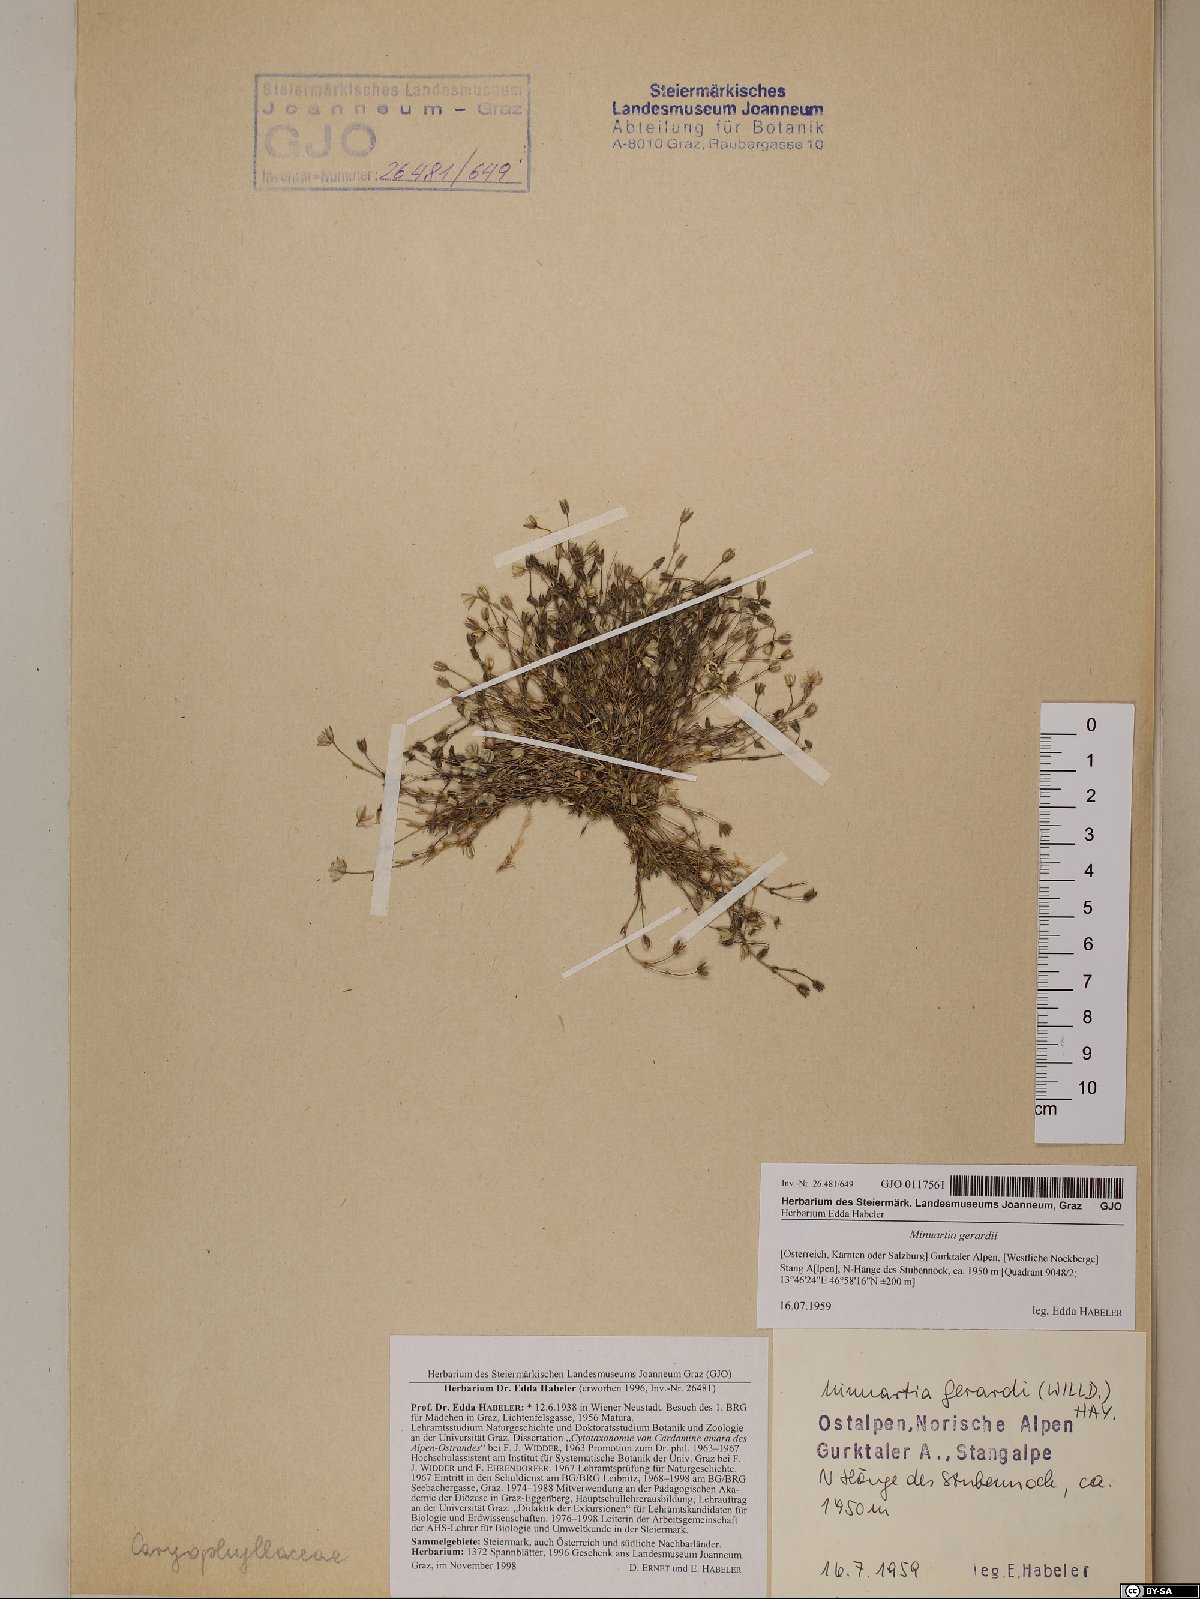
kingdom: Plantae
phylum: Tracheophyta
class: Magnoliopsida
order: Caryophyllales
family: Caryophyllaceae
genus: Sabulina
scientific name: Sabulina verna
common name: Spring sandwort
